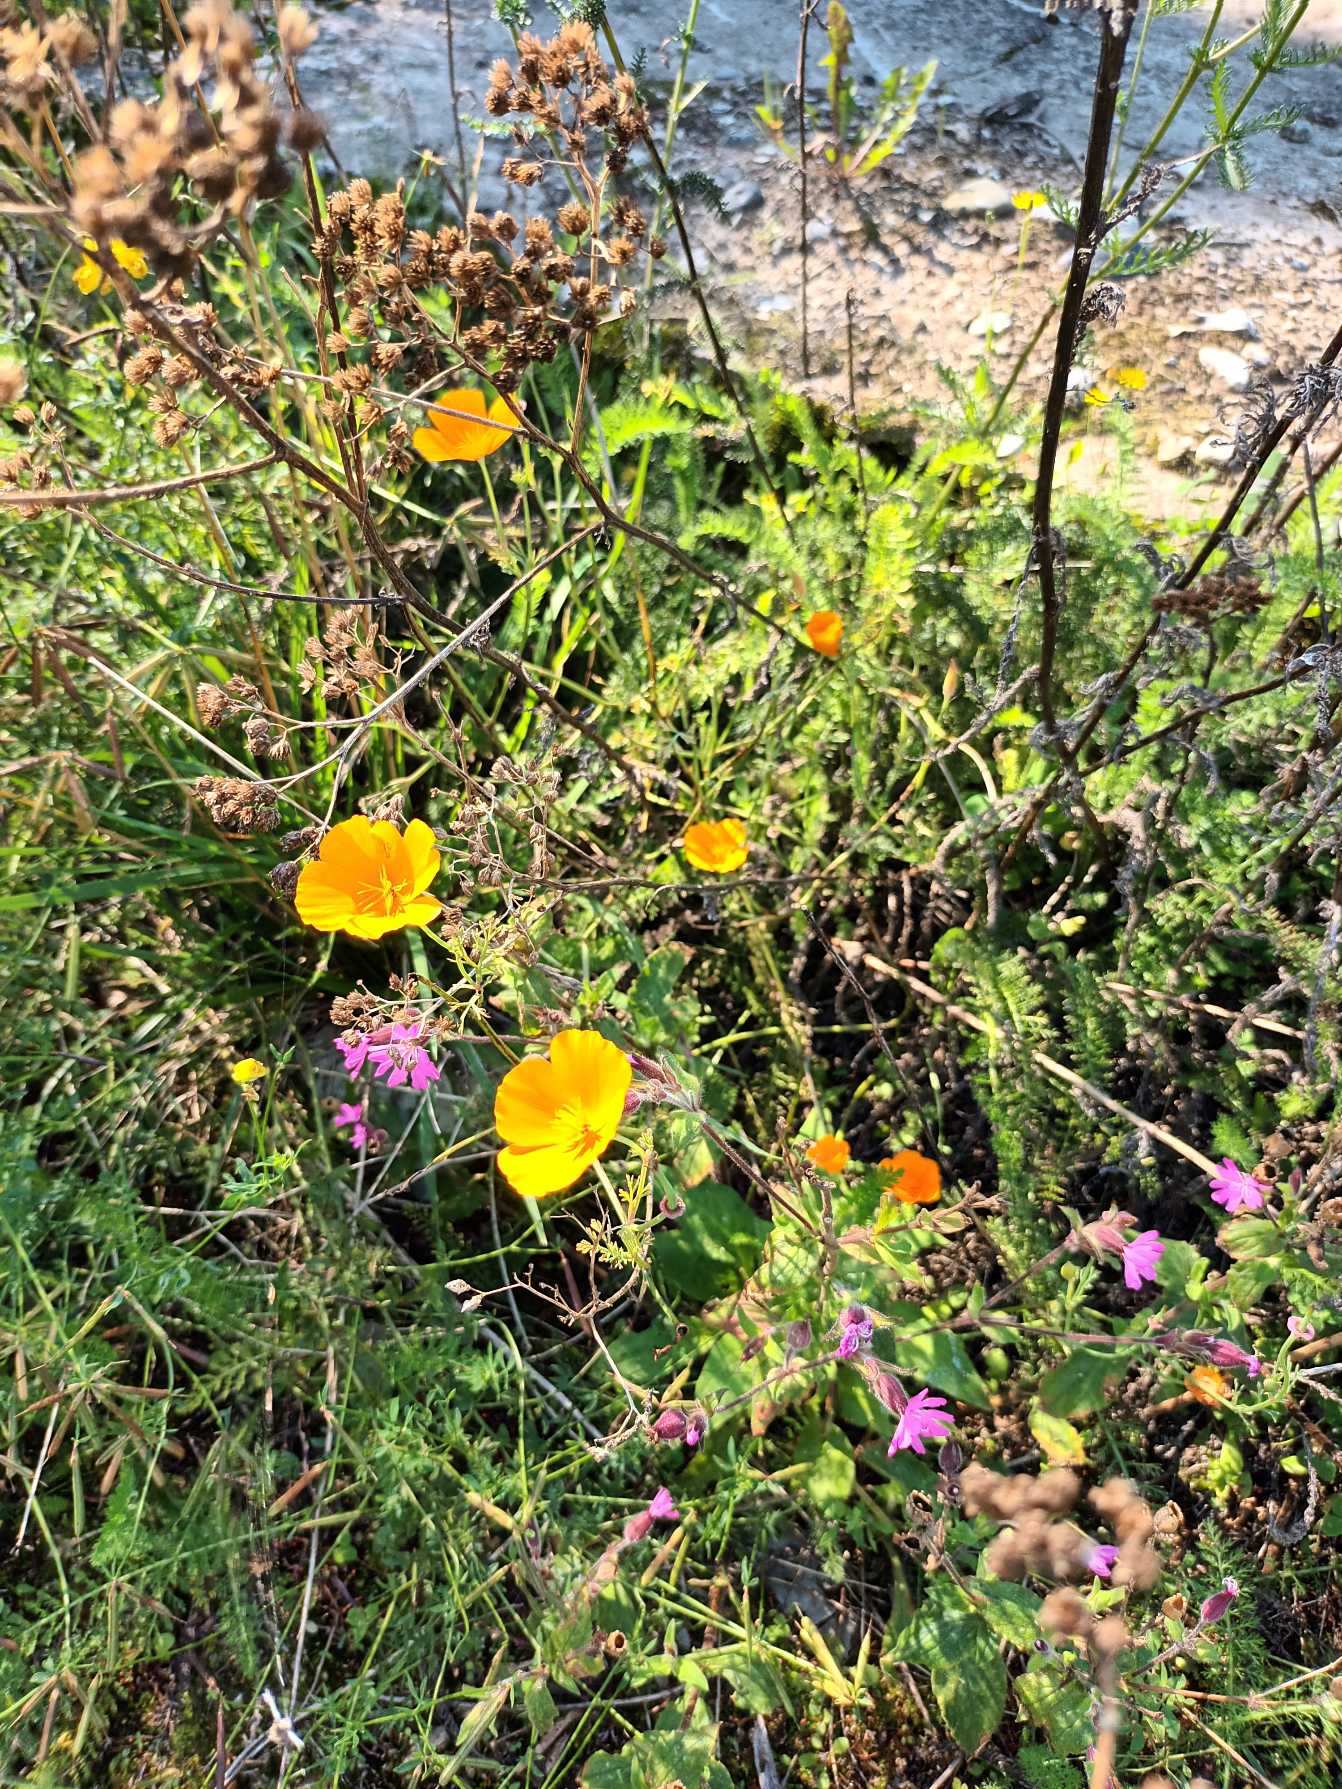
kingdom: Plantae
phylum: Tracheophyta
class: Magnoliopsida
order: Ranunculales
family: Papaveraceae
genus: Eschscholzia
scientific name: Eschscholzia californica
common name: Guldvalmue
